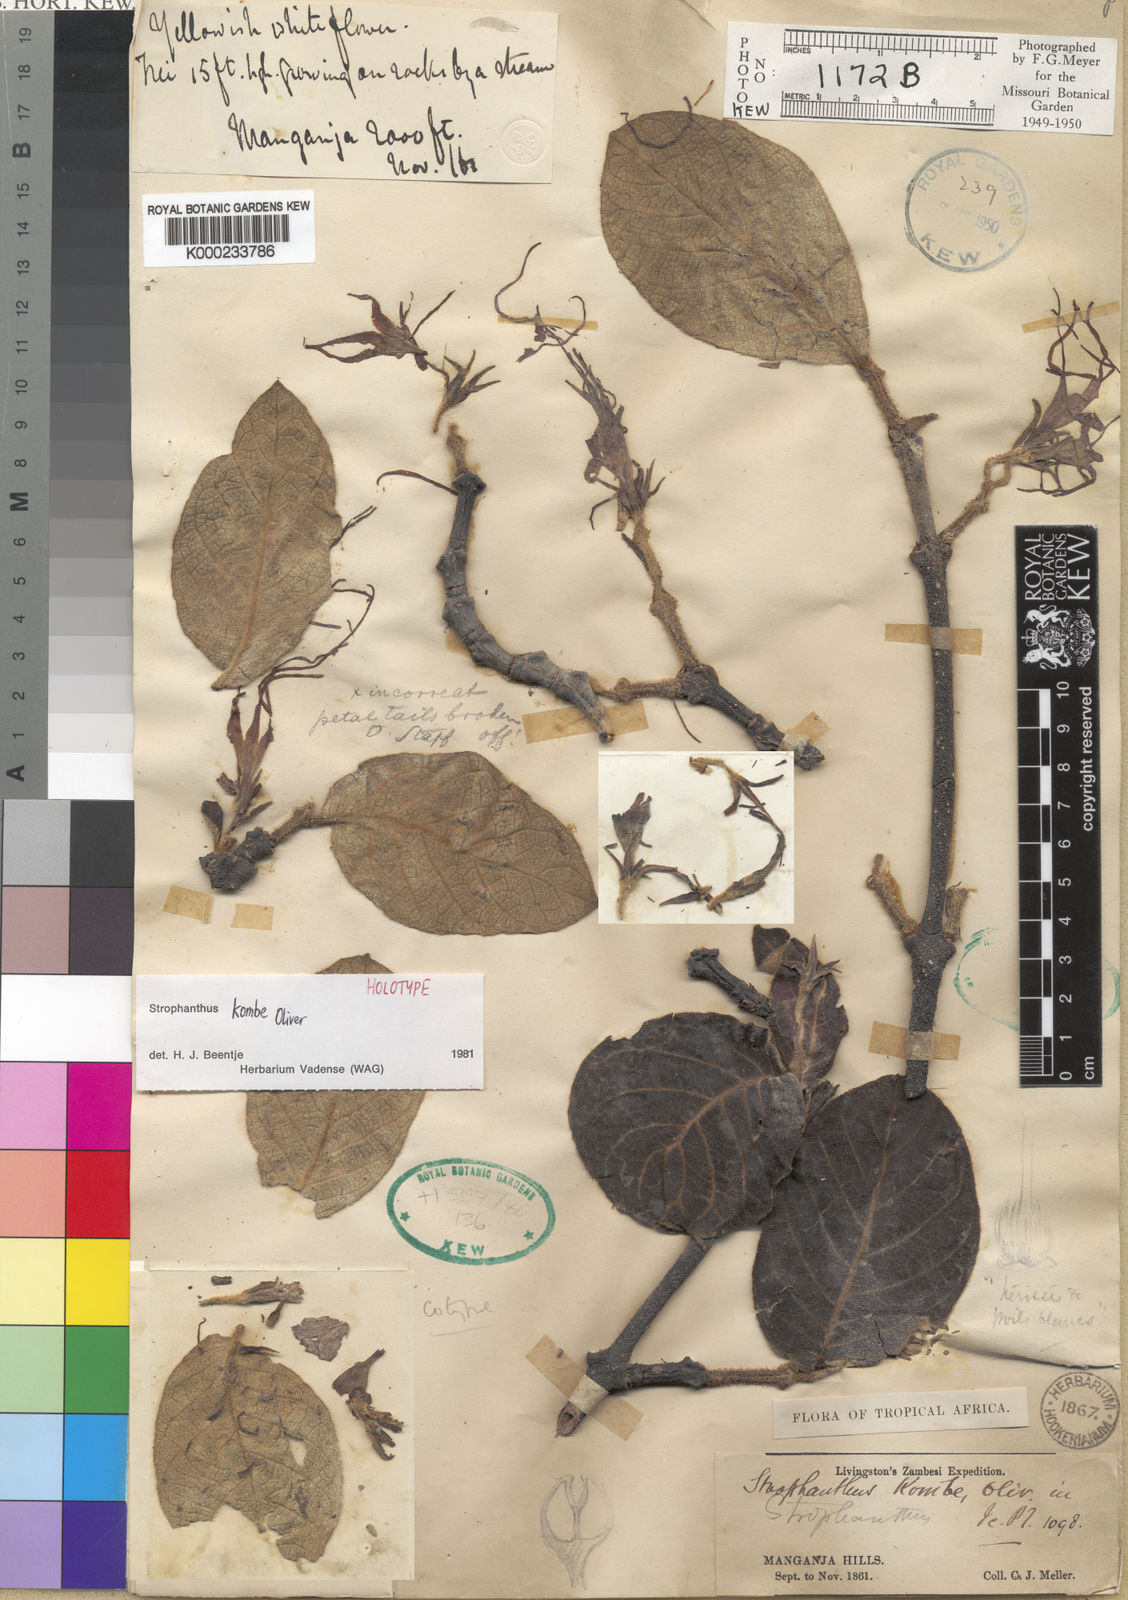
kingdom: Plantae
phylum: Tracheophyta
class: Magnoliopsida
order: Gentianales
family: Apocynaceae
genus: Strophanthus
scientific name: Strophanthus kombe
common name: Kombe
